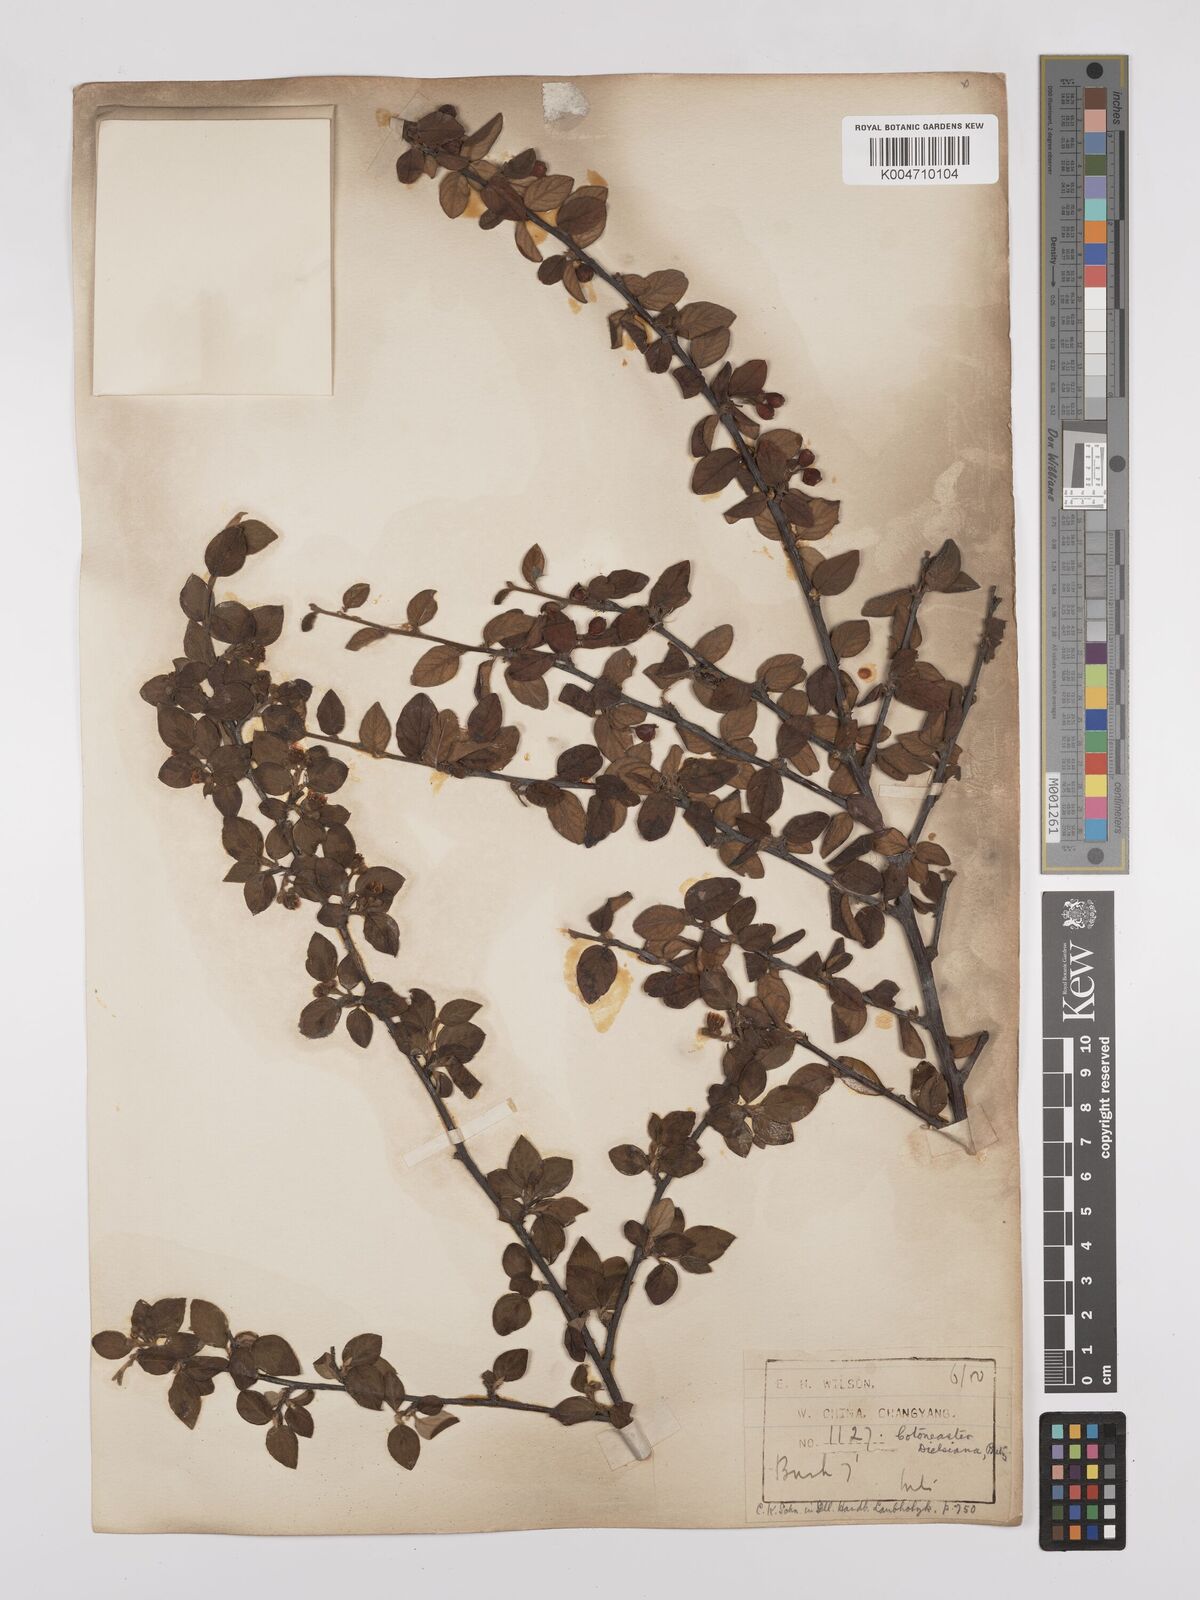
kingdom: Plantae
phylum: Tracheophyta
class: Magnoliopsida
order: Rosales
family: Rosaceae
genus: Cotoneaster
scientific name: Cotoneaster dielsianus
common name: Diels's cotoneaster
